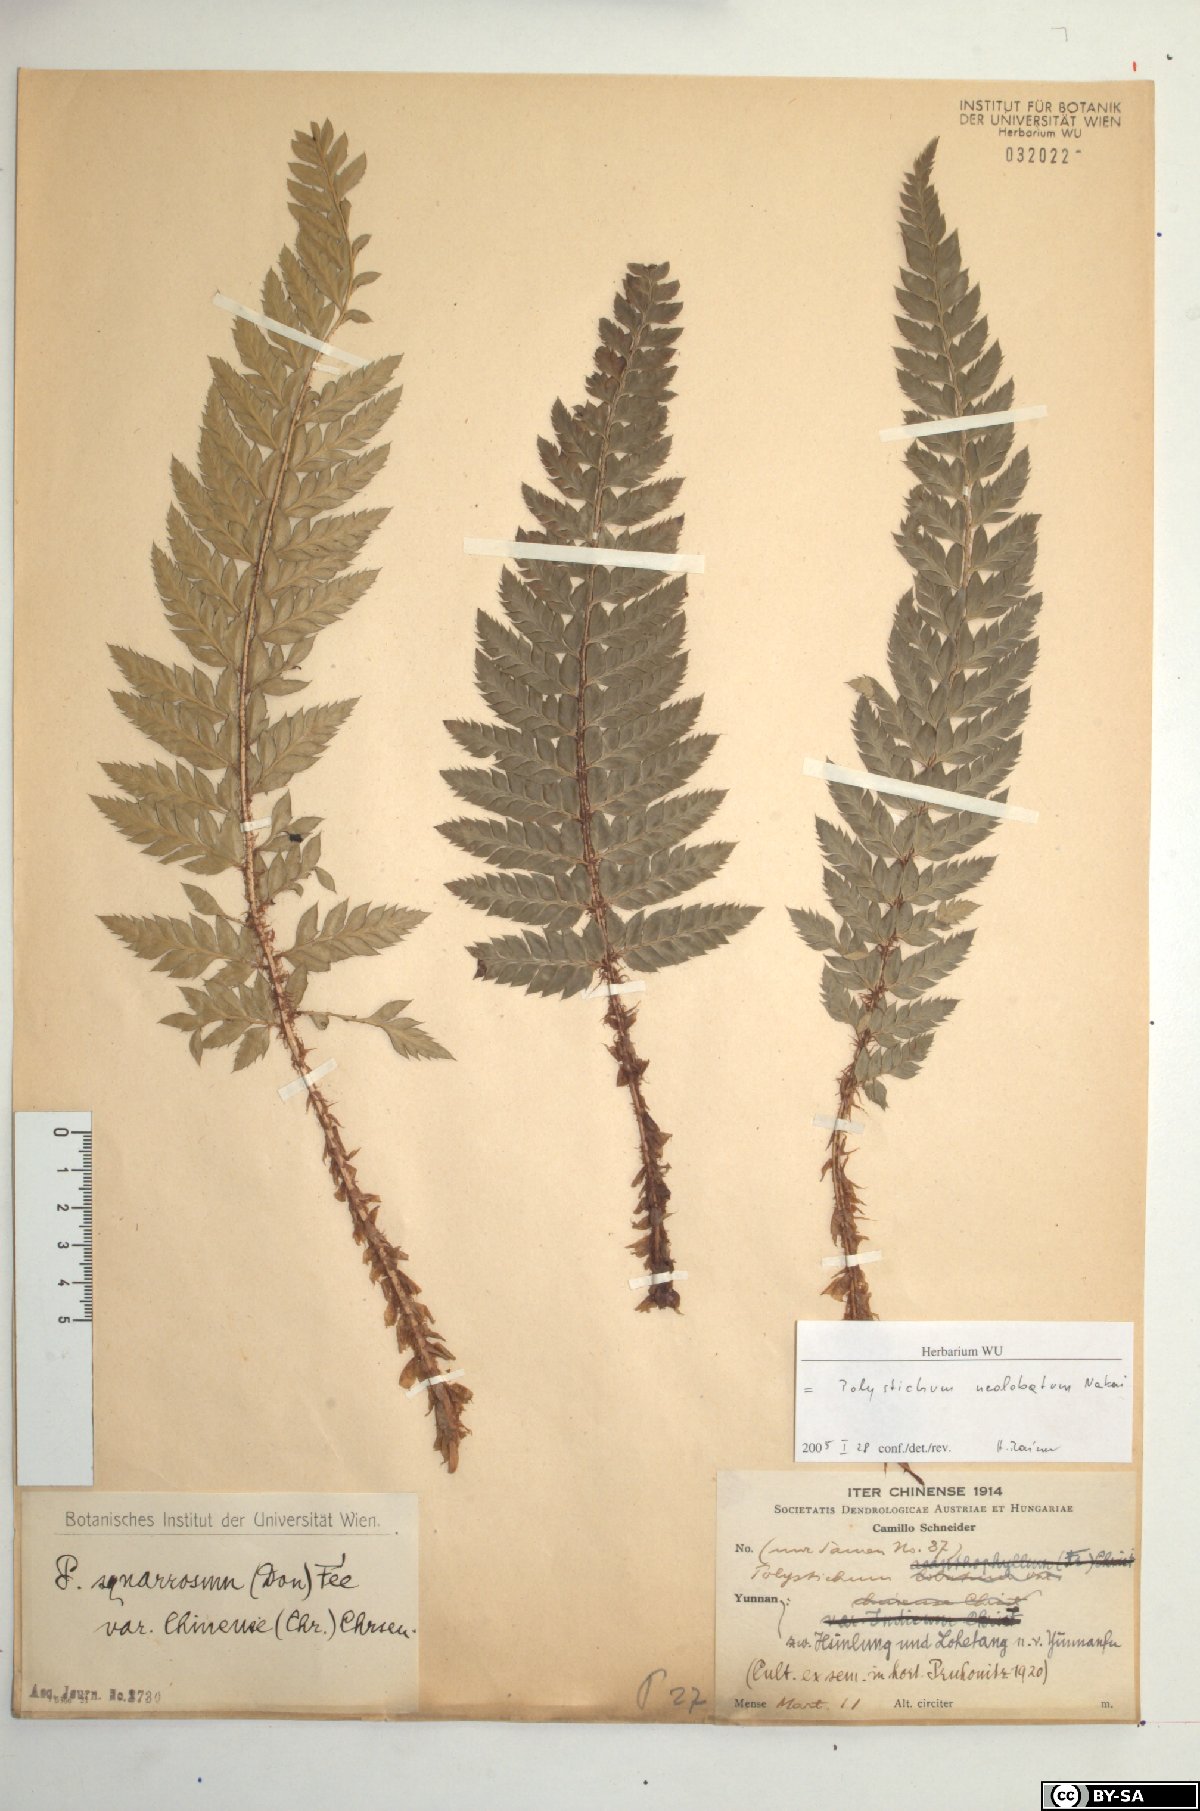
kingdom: Plantae
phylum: Tracheophyta
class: Polypodiopsida
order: Polypodiales
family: Dryopteridaceae
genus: Polystichum
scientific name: Polystichum neolobatum
